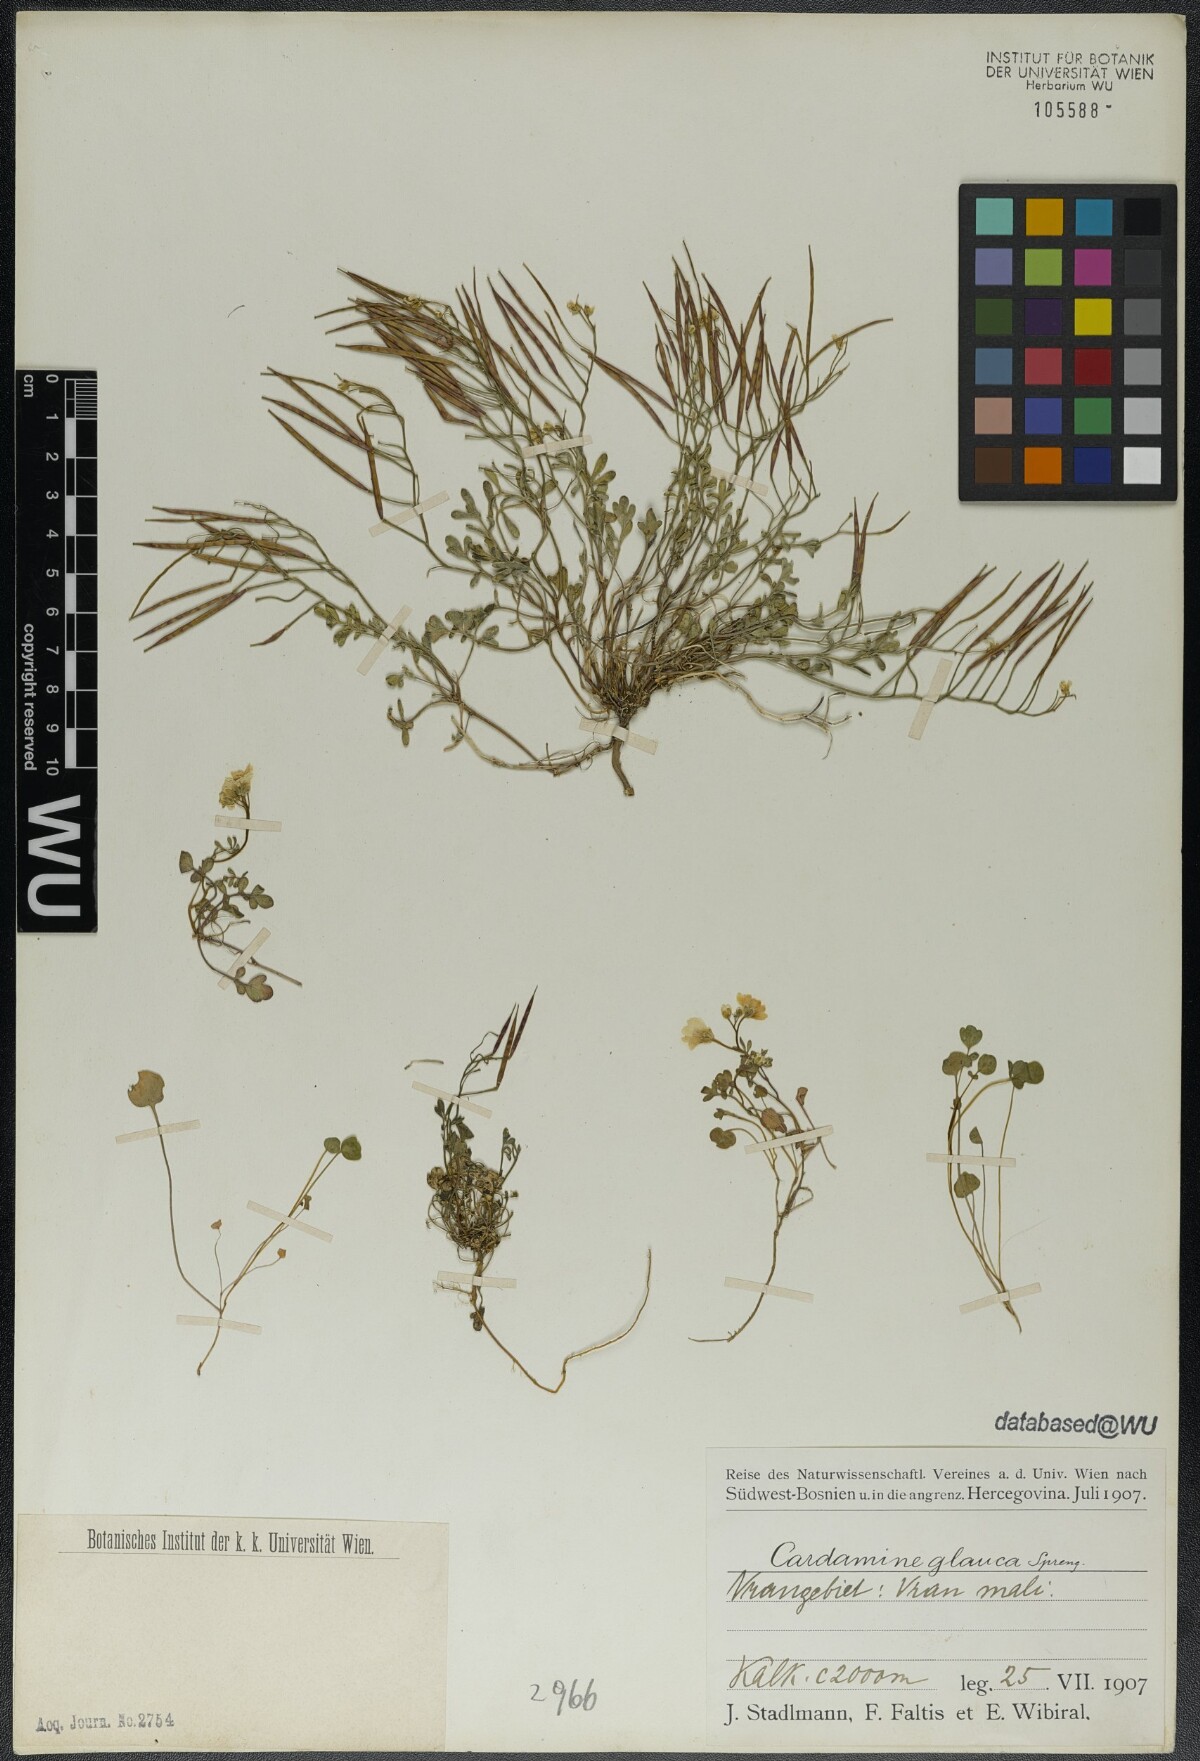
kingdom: Plantae
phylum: Tracheophyta
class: Magnoliopsida
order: Brassicales
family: Brassicaceae
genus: Cardamine
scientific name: Cardamine glauca
